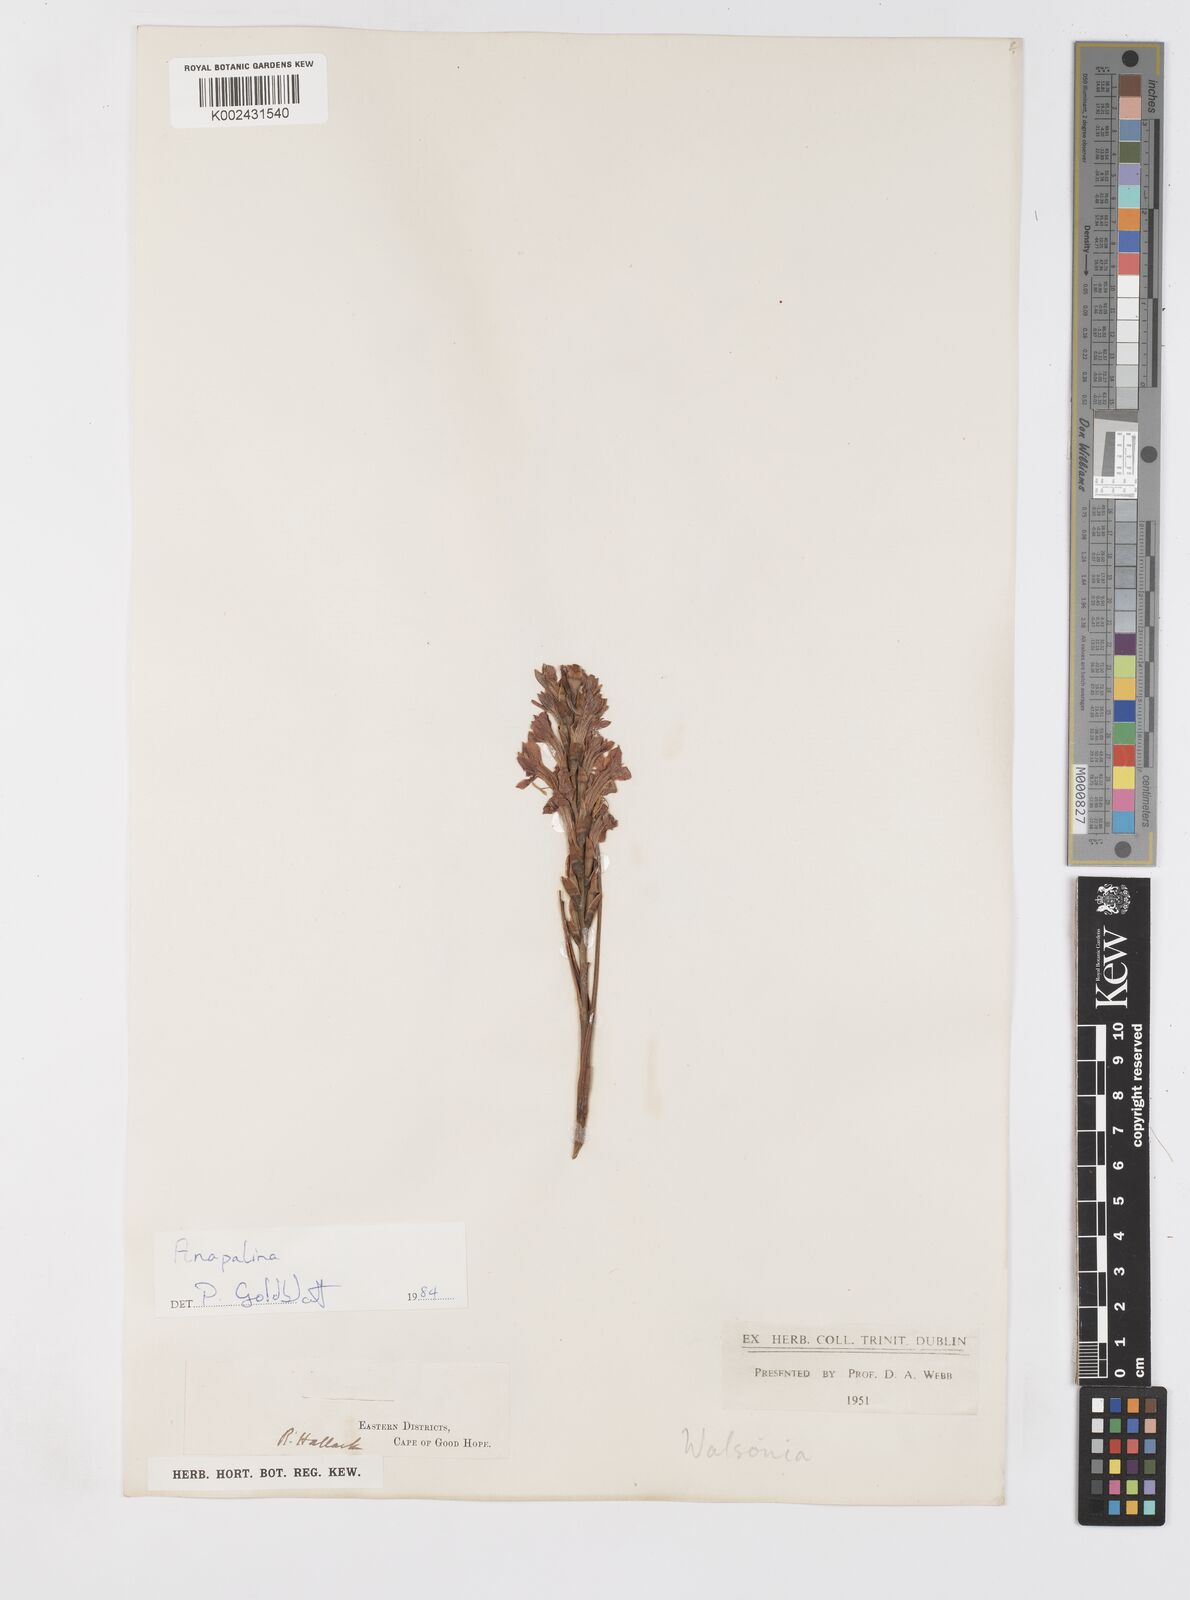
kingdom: Plantae
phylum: Tracheophyta
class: Liliopsida
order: Asparagales
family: Iridaceae
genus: Tritoniopsis
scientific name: Tritoniopsis
